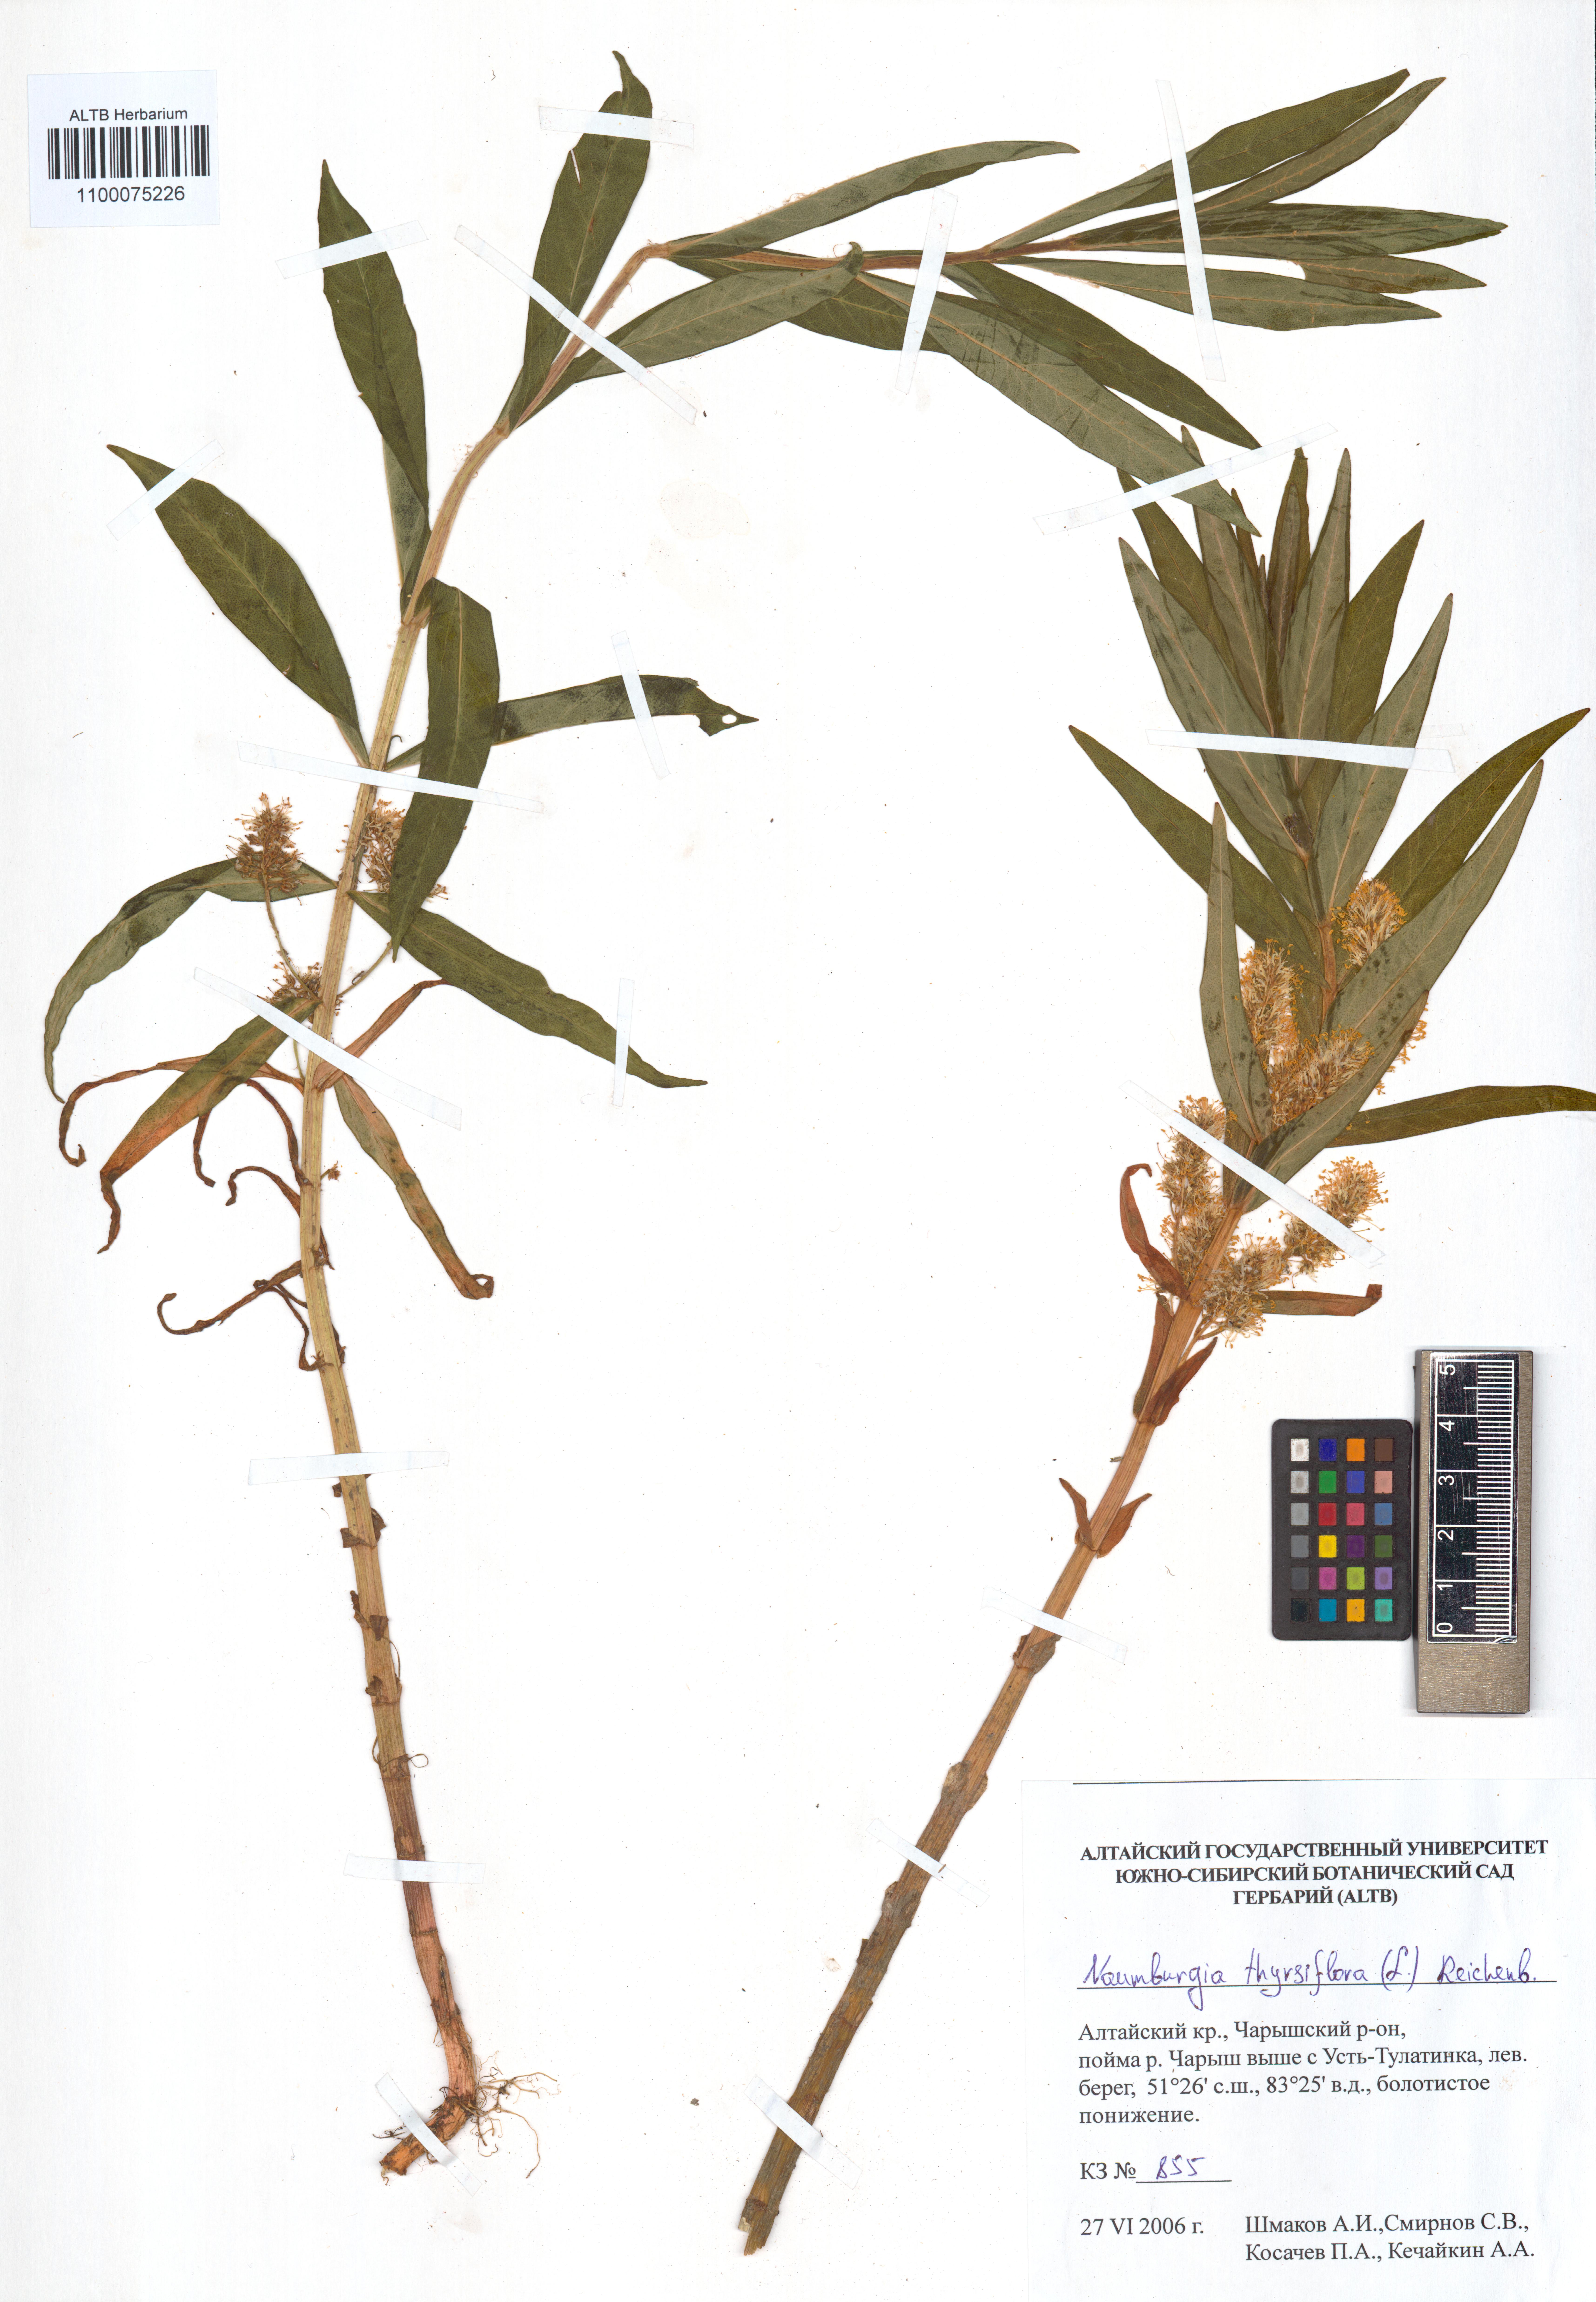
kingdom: Plantae
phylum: Tracheophyta
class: Magnoliopsida
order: Ericales
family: Primulaceae
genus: Lysimachia
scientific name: Lysimachia thyrsiflora
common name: Tufted loosestrife
